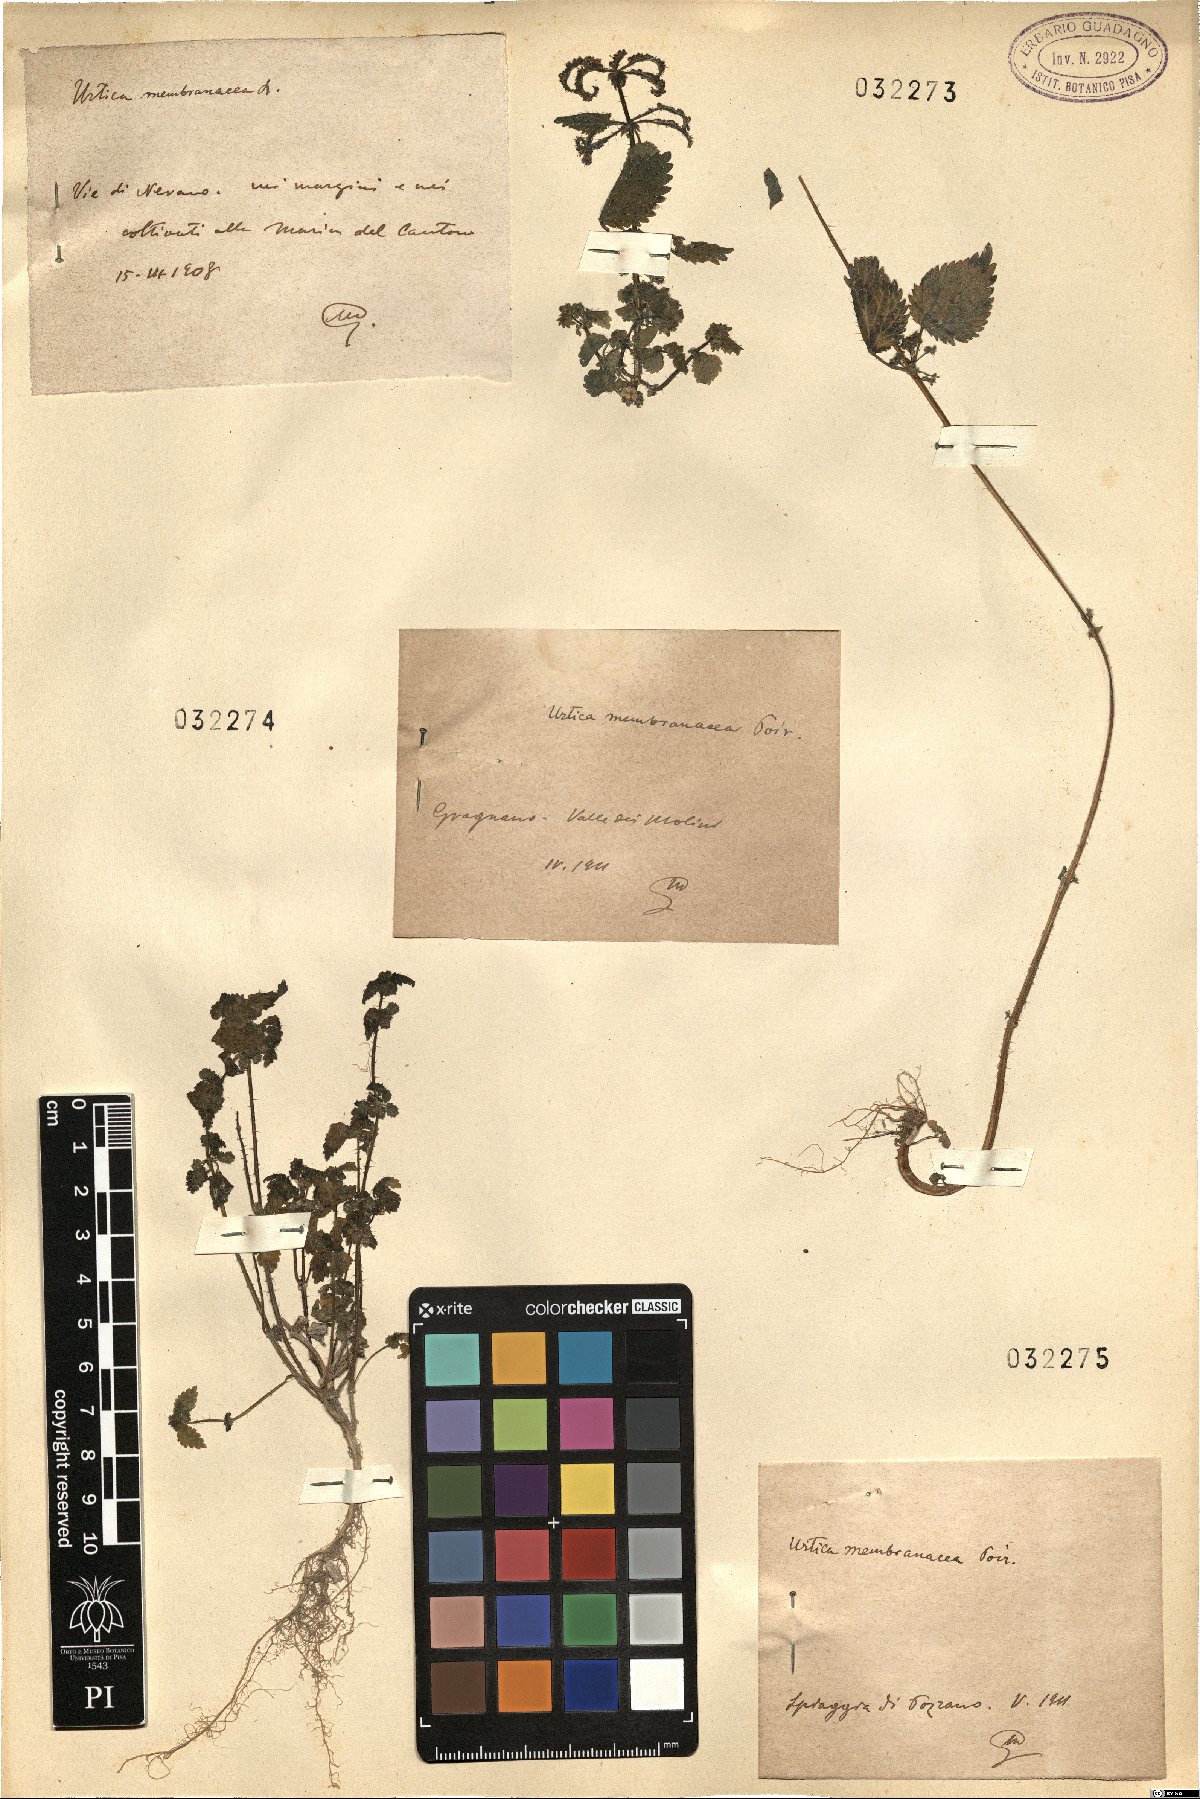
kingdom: Plantae
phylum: Tracheophyta
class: Magnoliopsida
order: Rosales
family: Urticaceae
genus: Urtica
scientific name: Urtica membranacea
